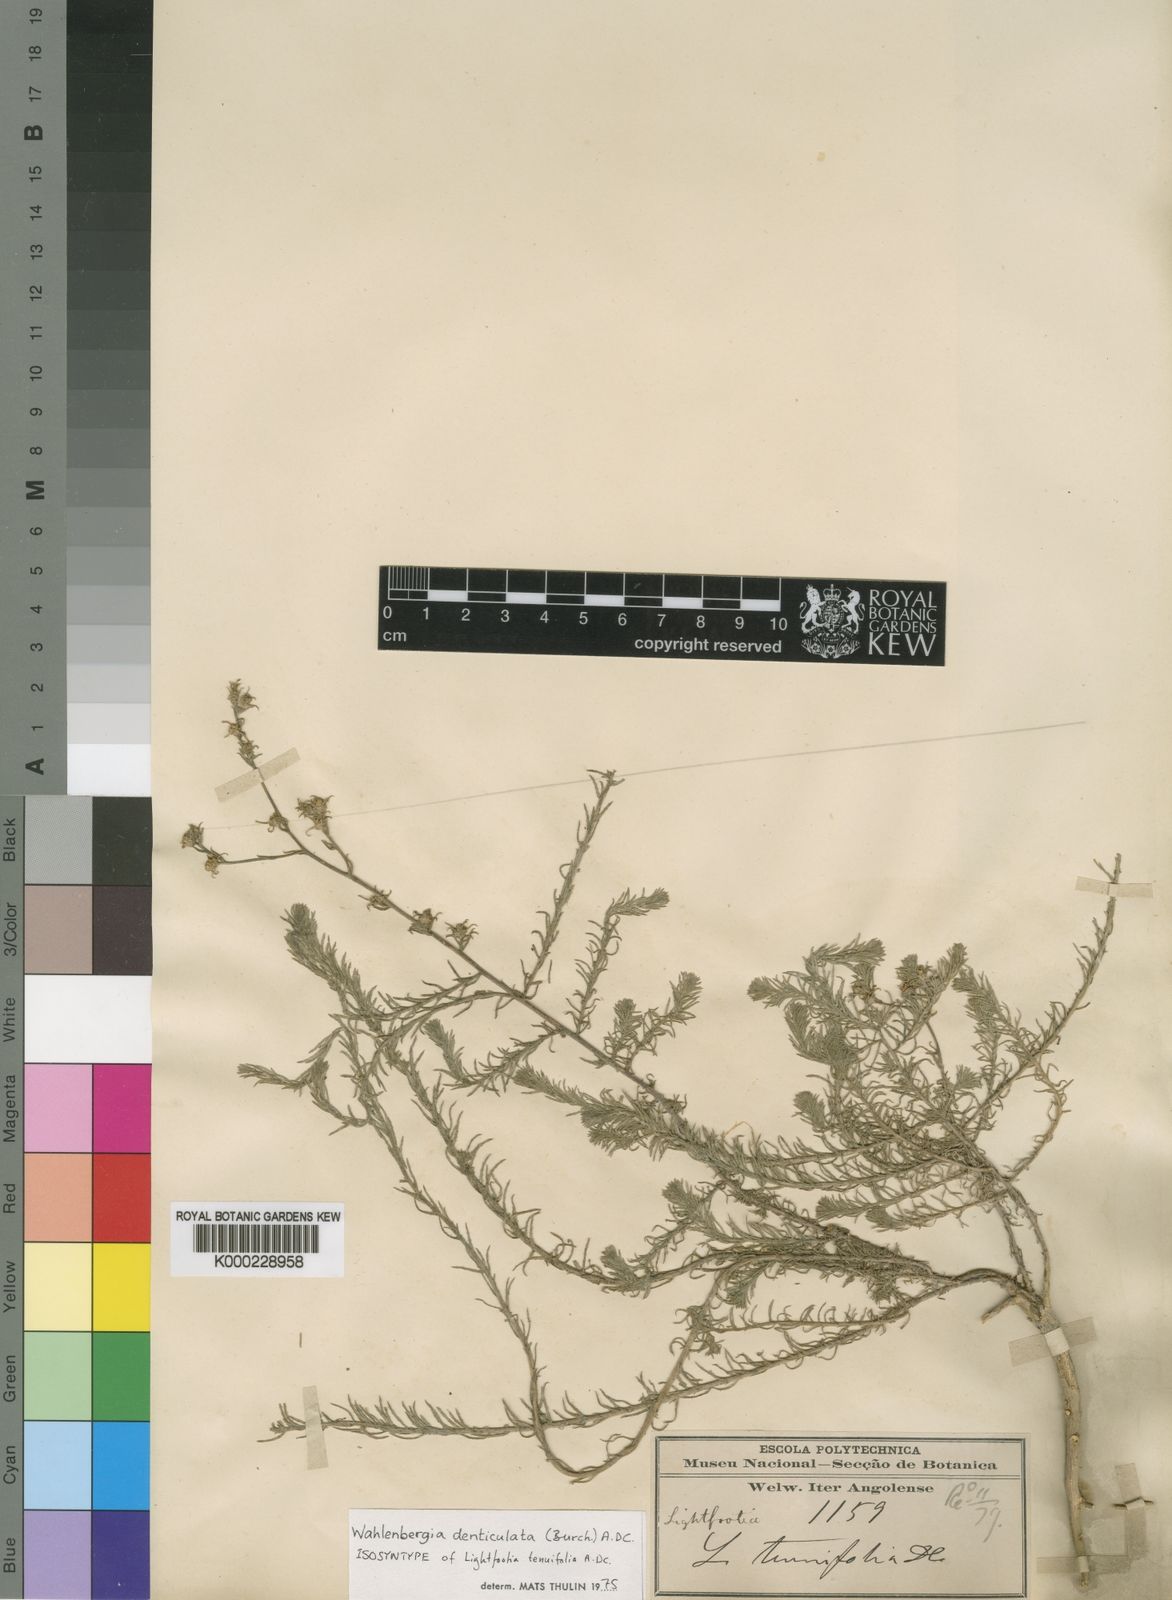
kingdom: Plantae
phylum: Tracheophyta
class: Magnoliopsida
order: Asterales
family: Campanulaceae
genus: Wahlenbergia
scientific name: Wahlenbergia denticulata
